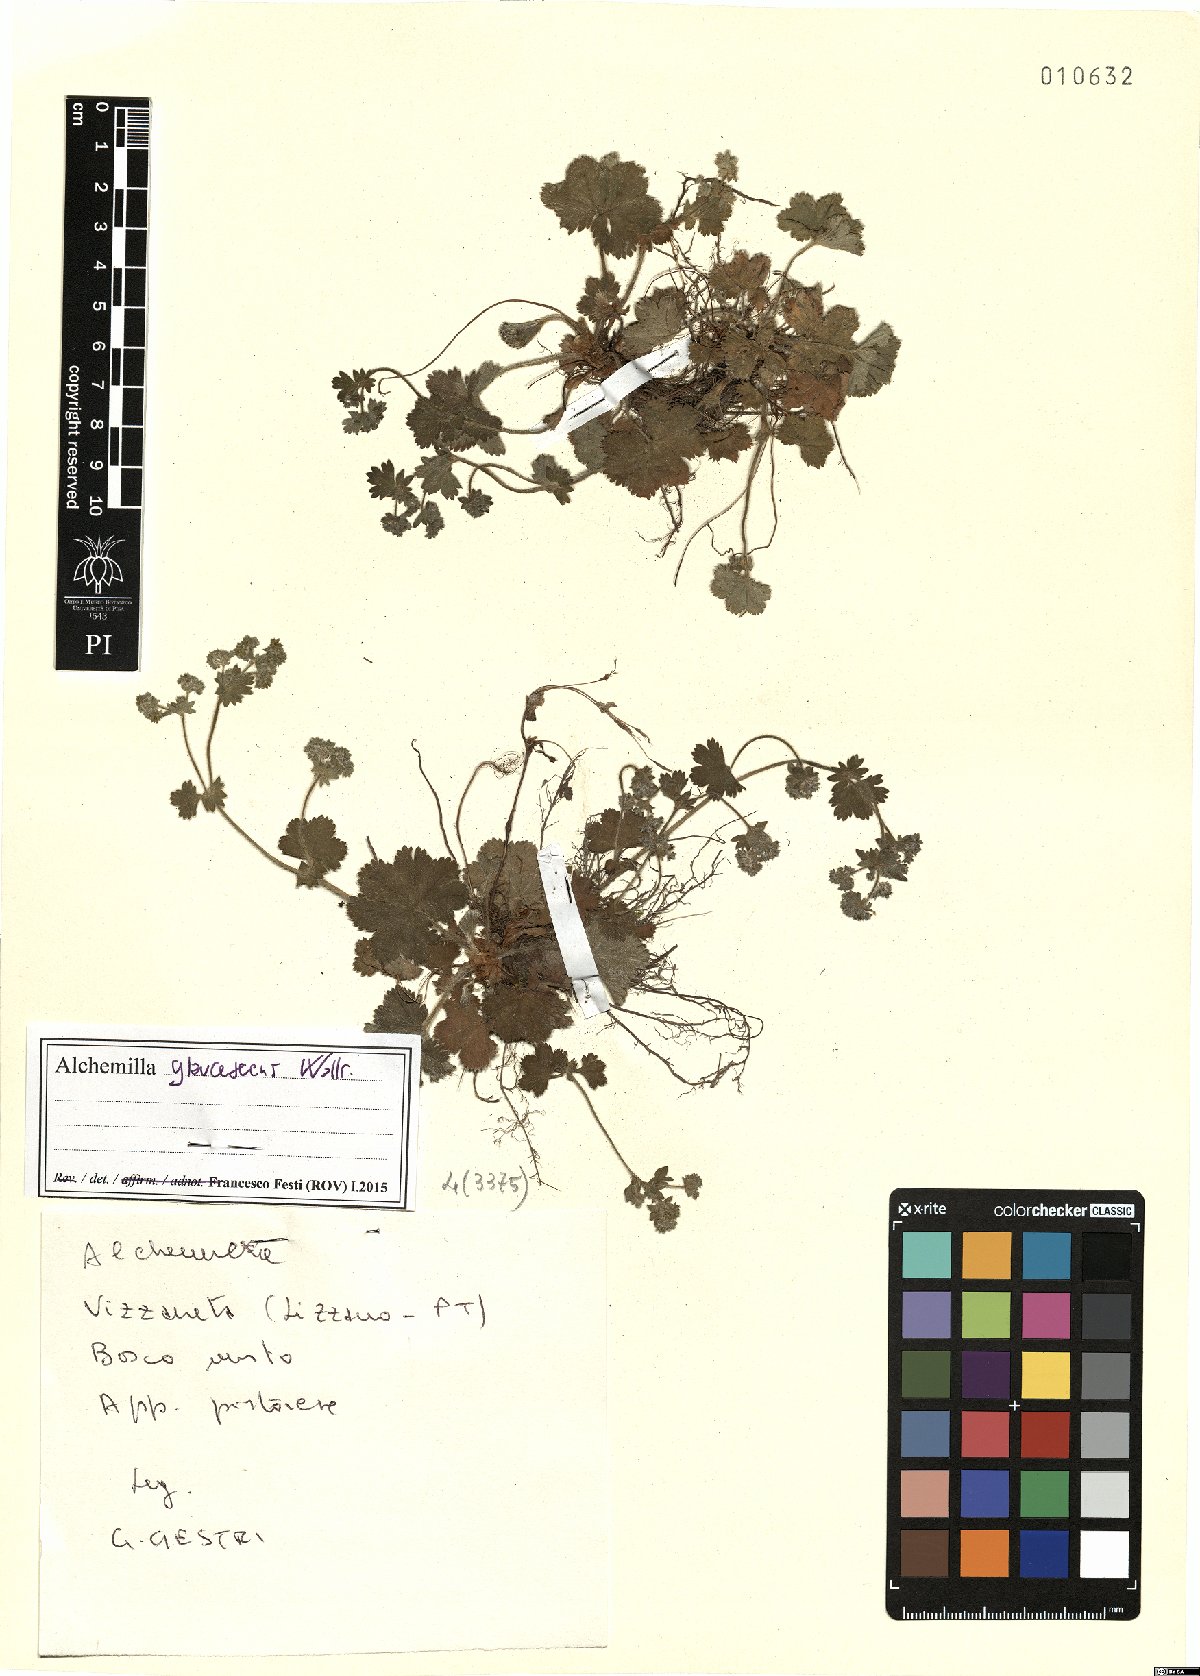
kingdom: Plantae
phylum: Tracheophyta
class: Magnoliopsida
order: Rosales
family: Rosaceae
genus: Alchemilla
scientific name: Alchemilla glaucescens
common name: Silky lady's mantle
